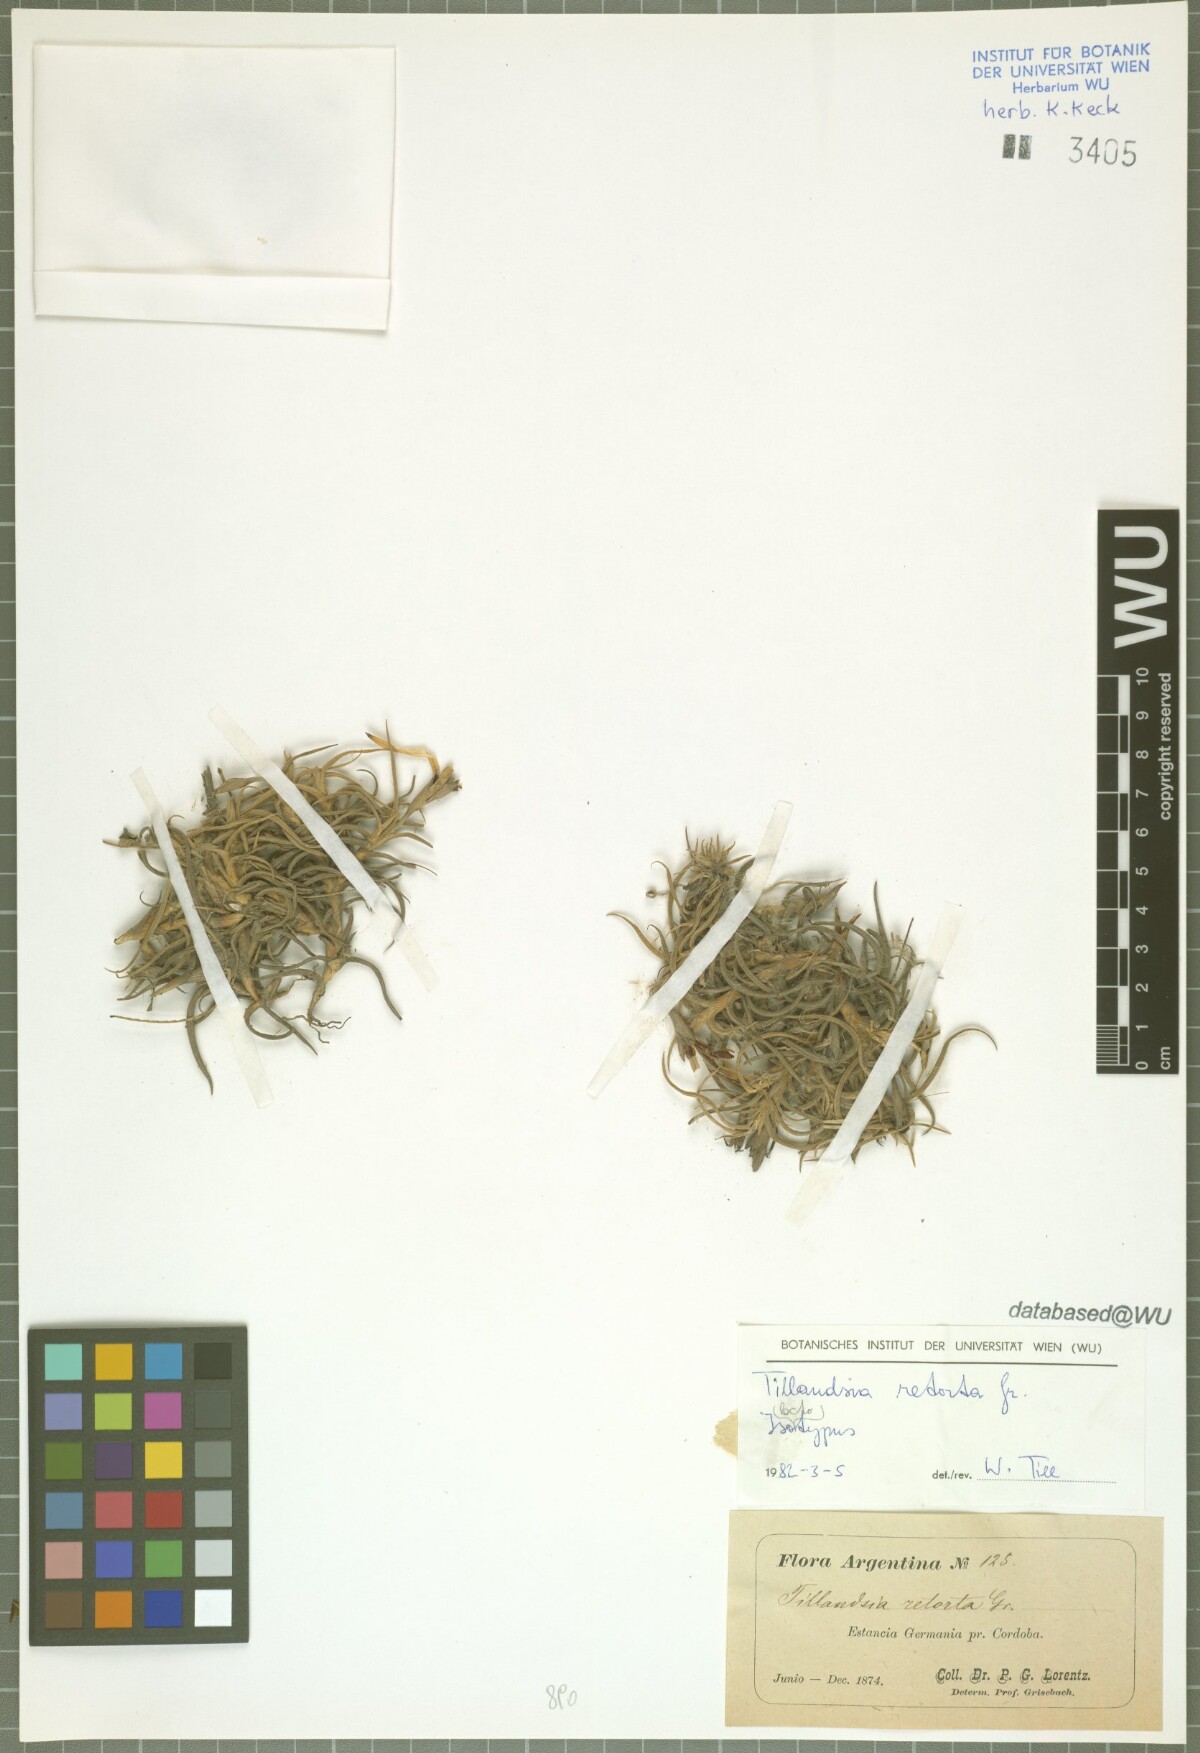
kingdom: Plantae
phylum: Tracheophyta
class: Liliopsida
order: Poales
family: Bromeliaceae
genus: Tillandsia
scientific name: Tillandsia retorta
